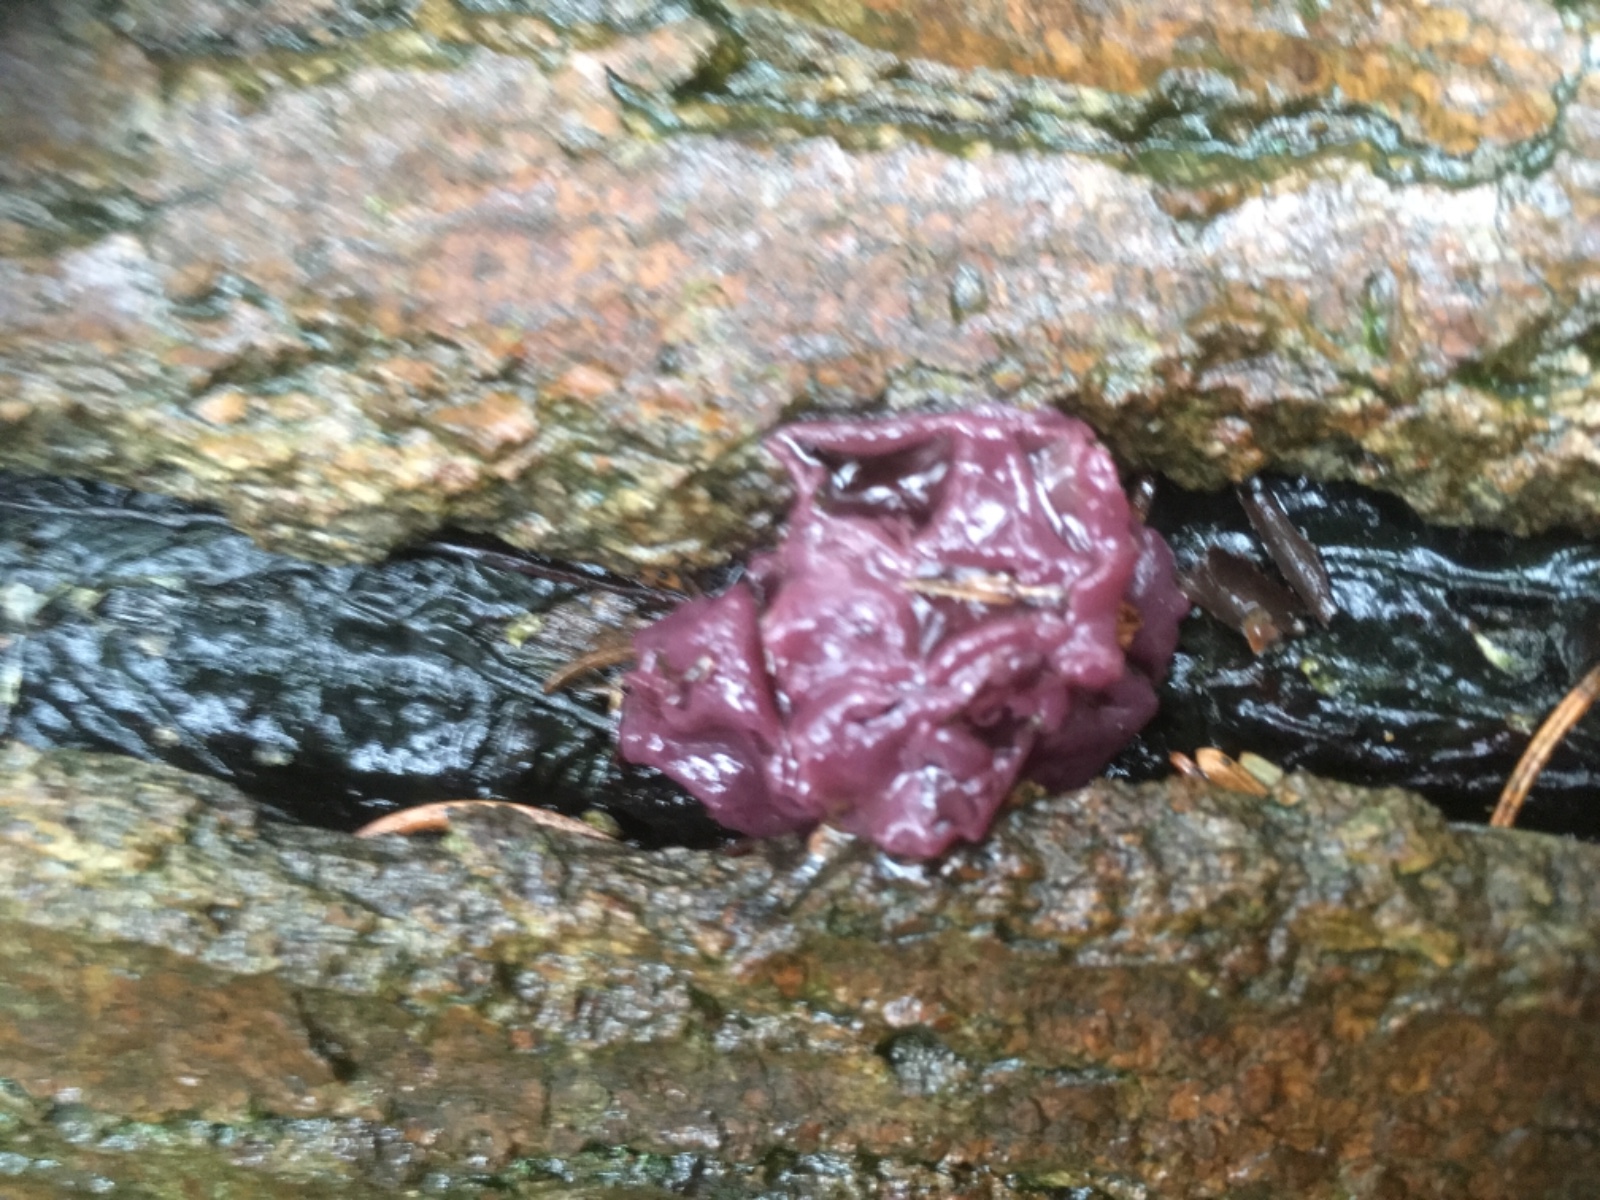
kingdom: Fungi
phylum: Ascomycota
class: Leotiomycetes
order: Helotiales
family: Gelatinodiscaceae
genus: Ascocoryne
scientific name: Ascocoryne sarcoides
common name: rødlilla sejskive
